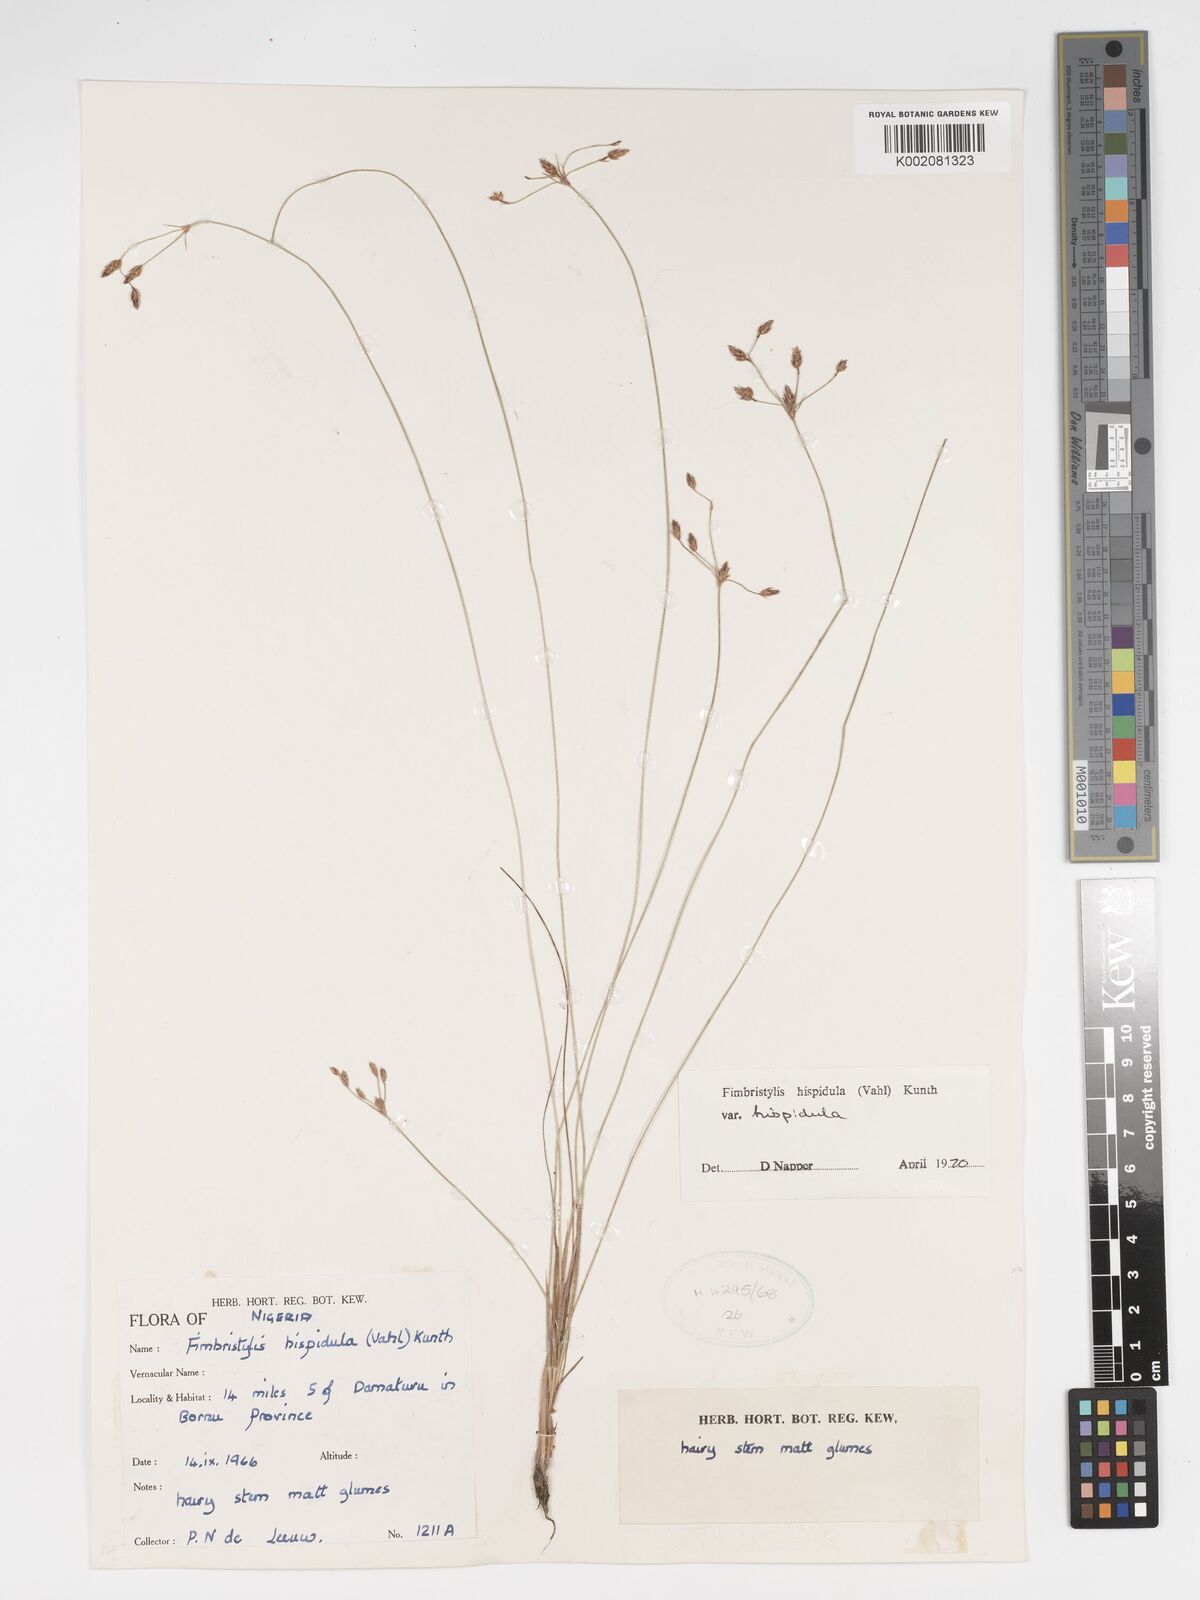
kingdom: Plantae
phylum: Tracheophyta
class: Liliopsida
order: Poales
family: Cyperaceae
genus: Bulbostylis
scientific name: Bulbostylis hispidula
